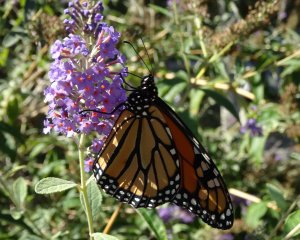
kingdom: Animalia
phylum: Arthropoda
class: Insecta
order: Lepidoptera
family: Nymphalidae
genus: Danaus
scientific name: Danaus plexippus
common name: Monarch
